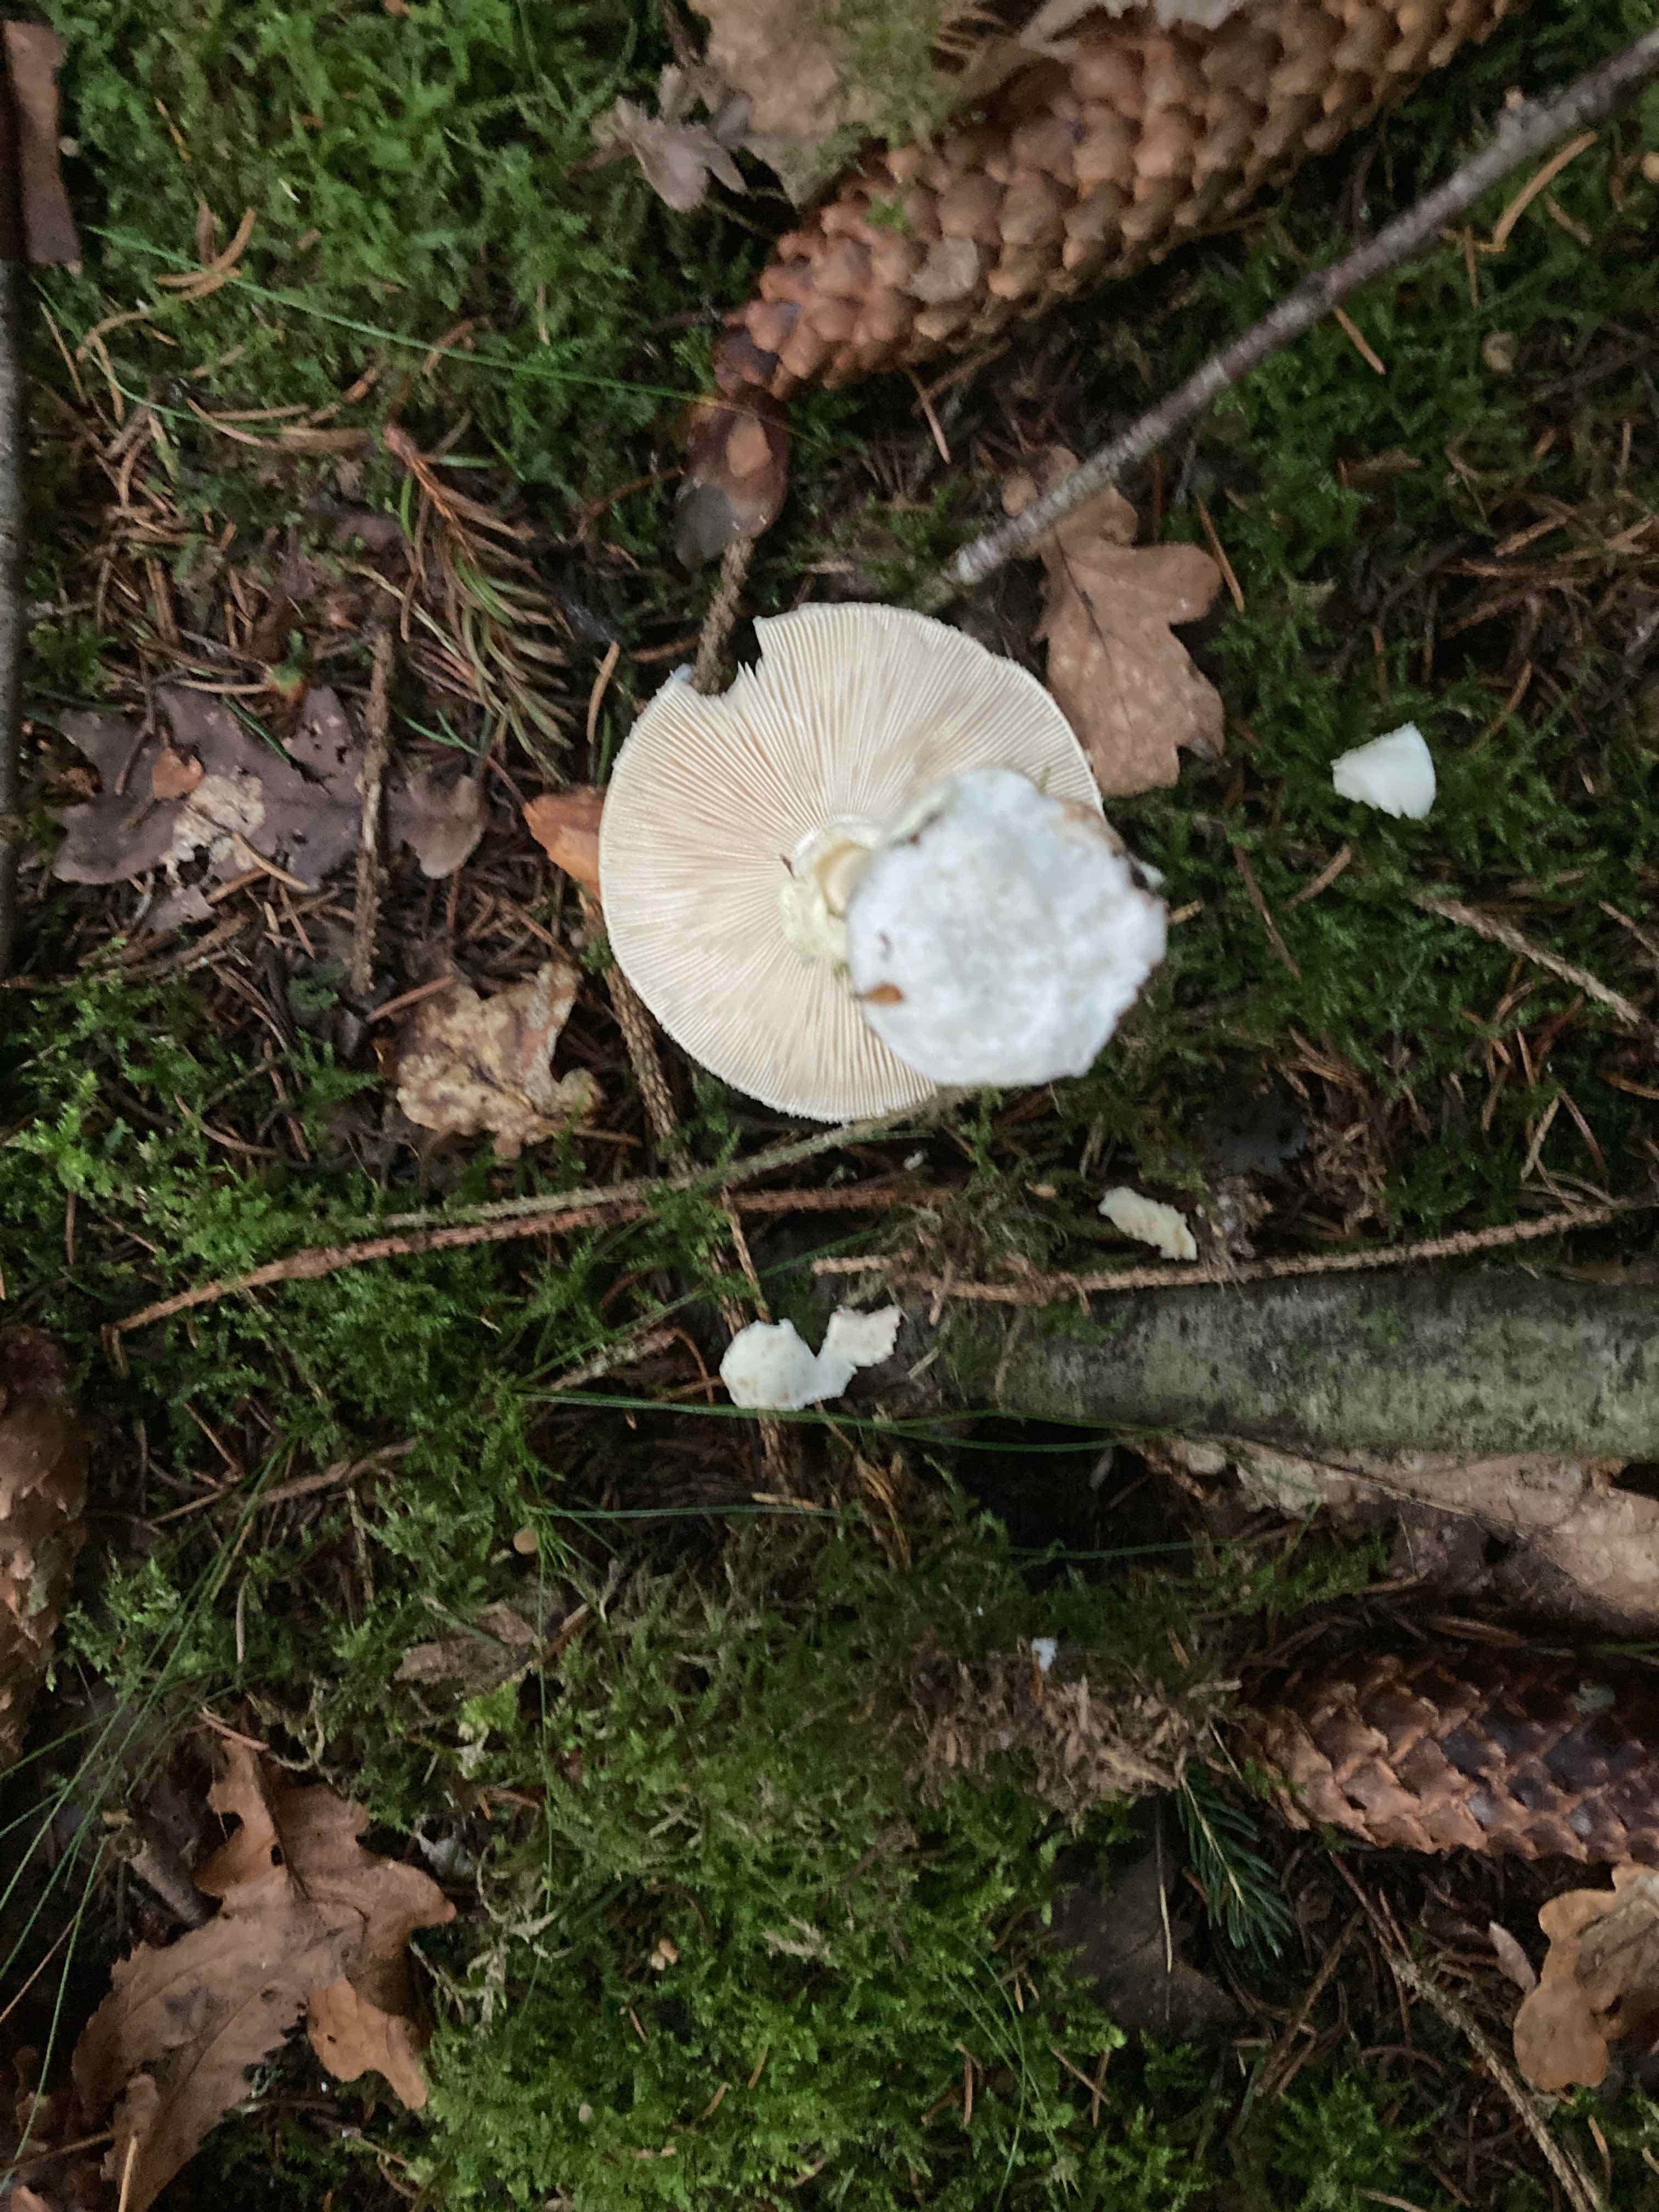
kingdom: Fungi
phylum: Basidiomycota
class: Agaricomycetes
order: Agaricales
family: Amanitaceae
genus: Amanita
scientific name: Amanita citrina
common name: kugleknoldet fluesvamp
